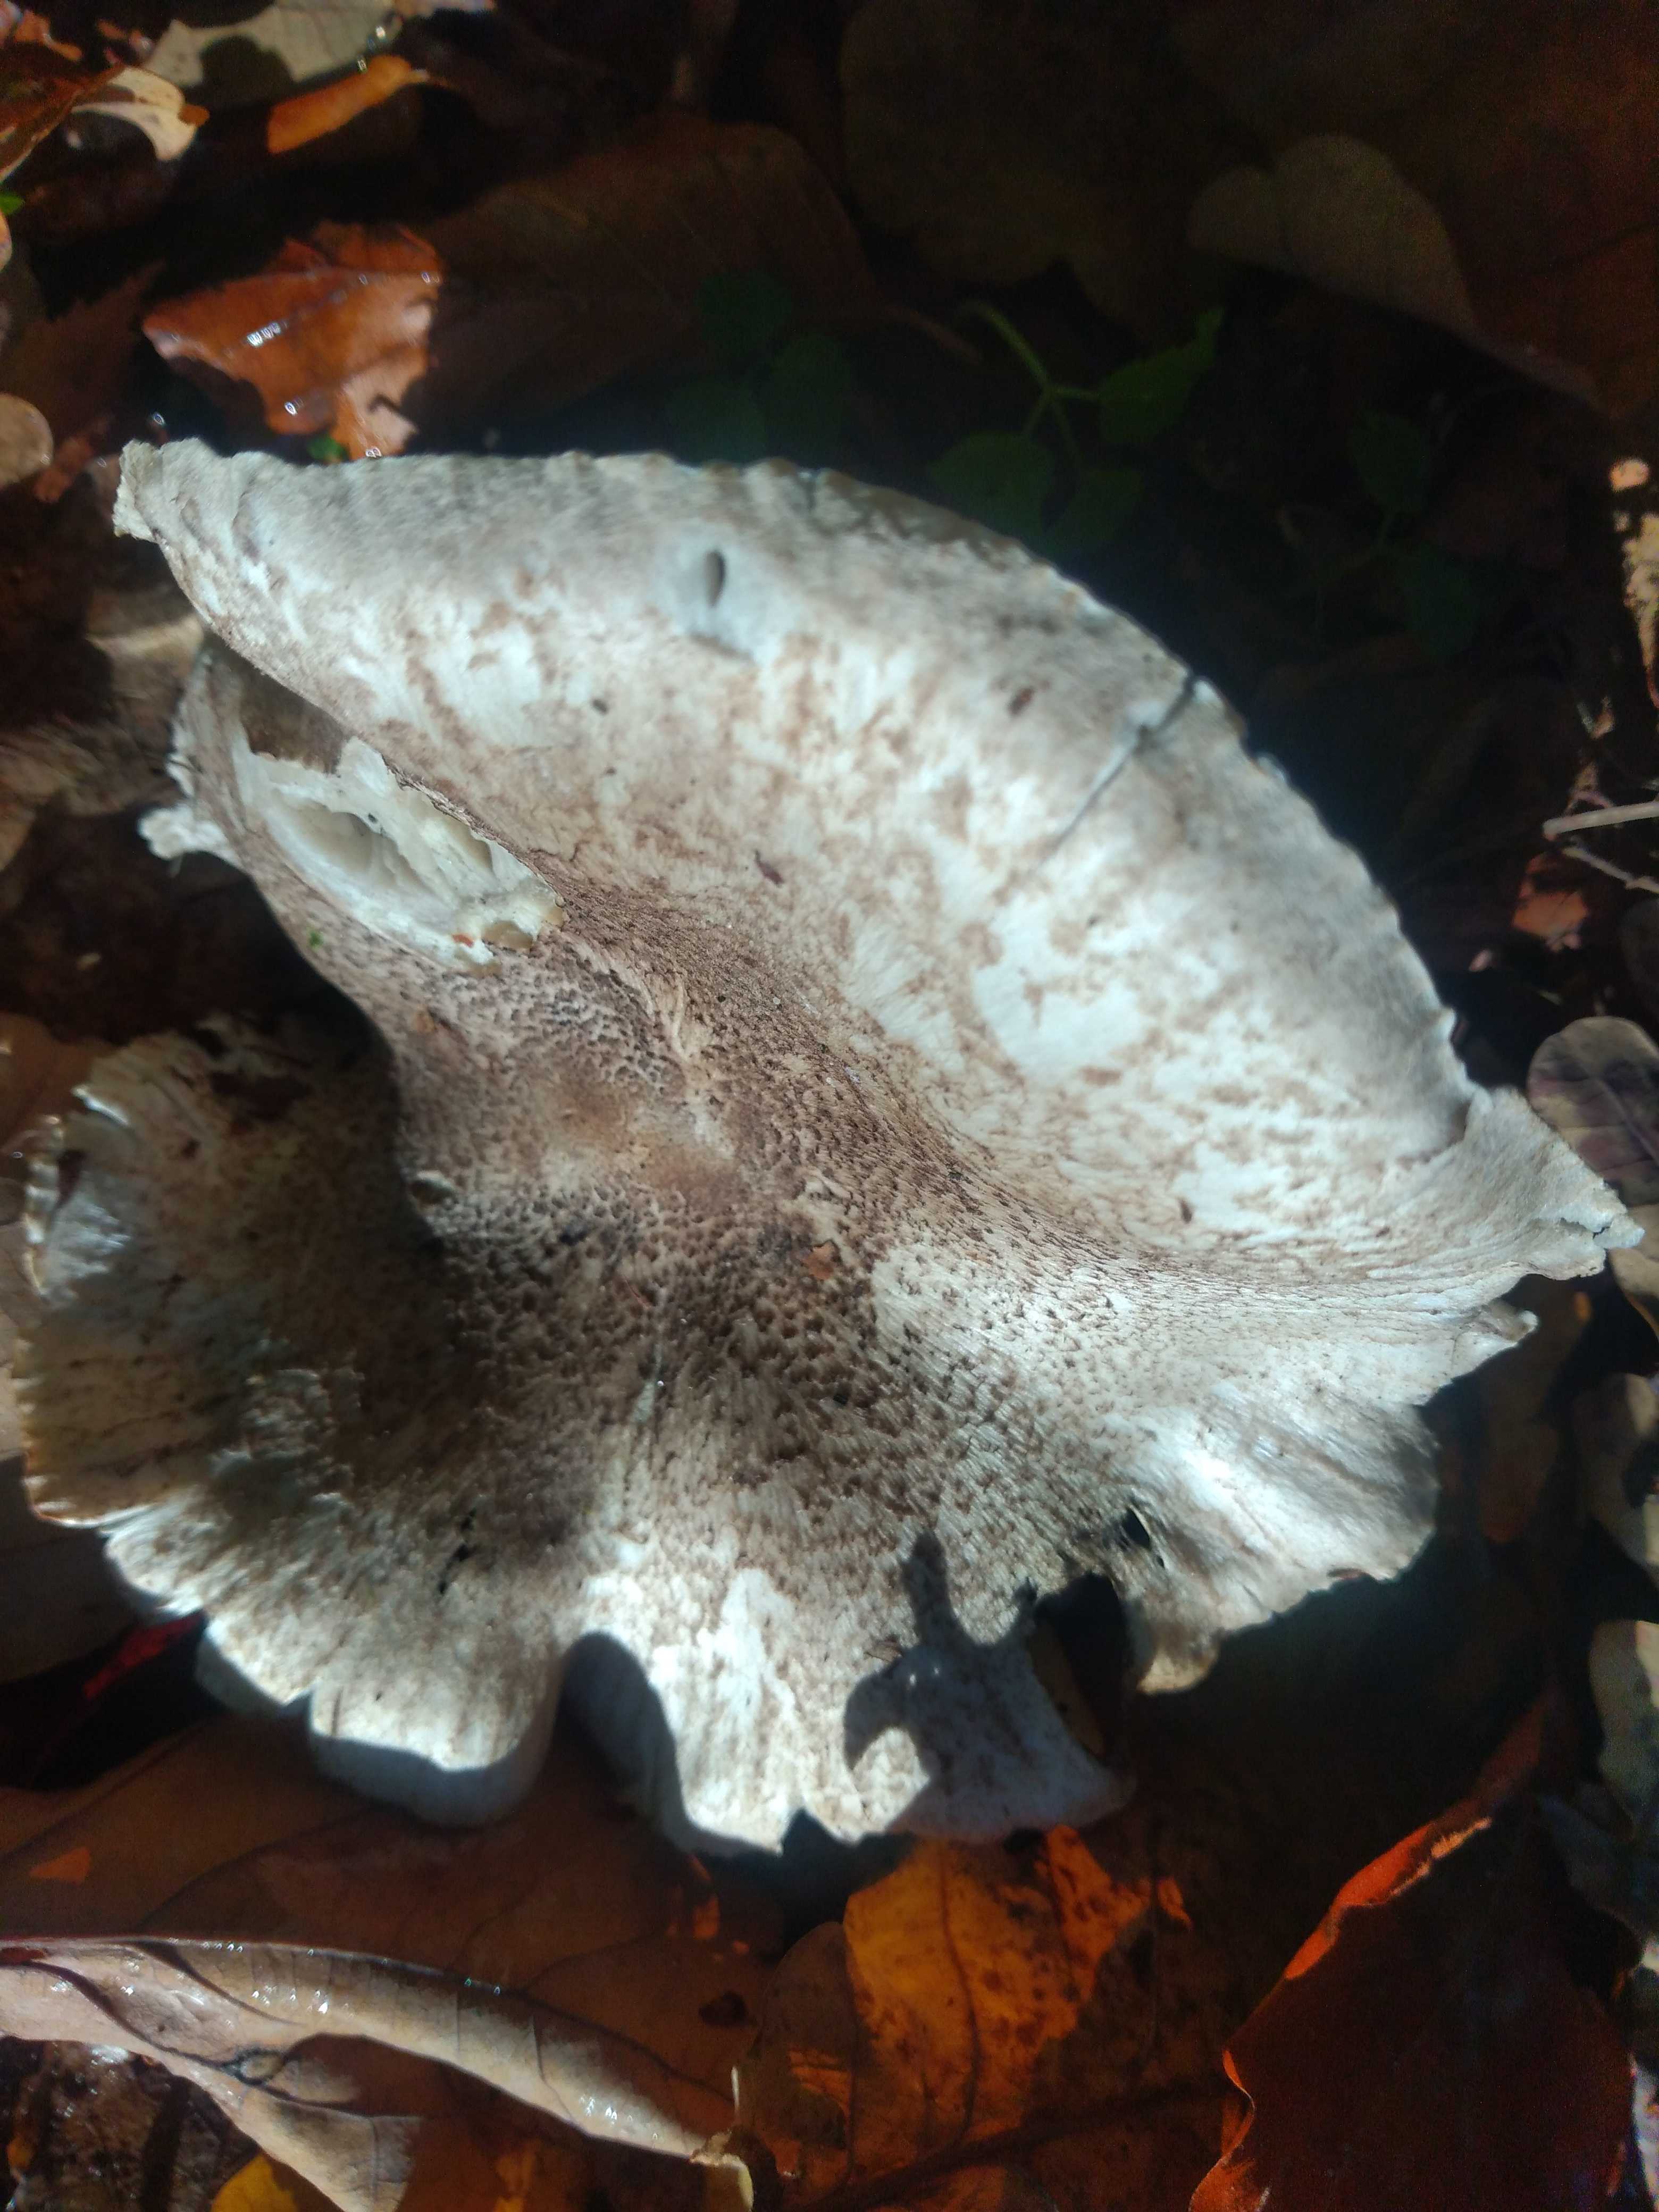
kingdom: Fungi
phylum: Basidiomycota
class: Agaricomycetes
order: Agaricales
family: Tricholomataceae
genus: Tricholoma
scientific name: Tricholoma scalpturatum
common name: gulplettet ridderhat
